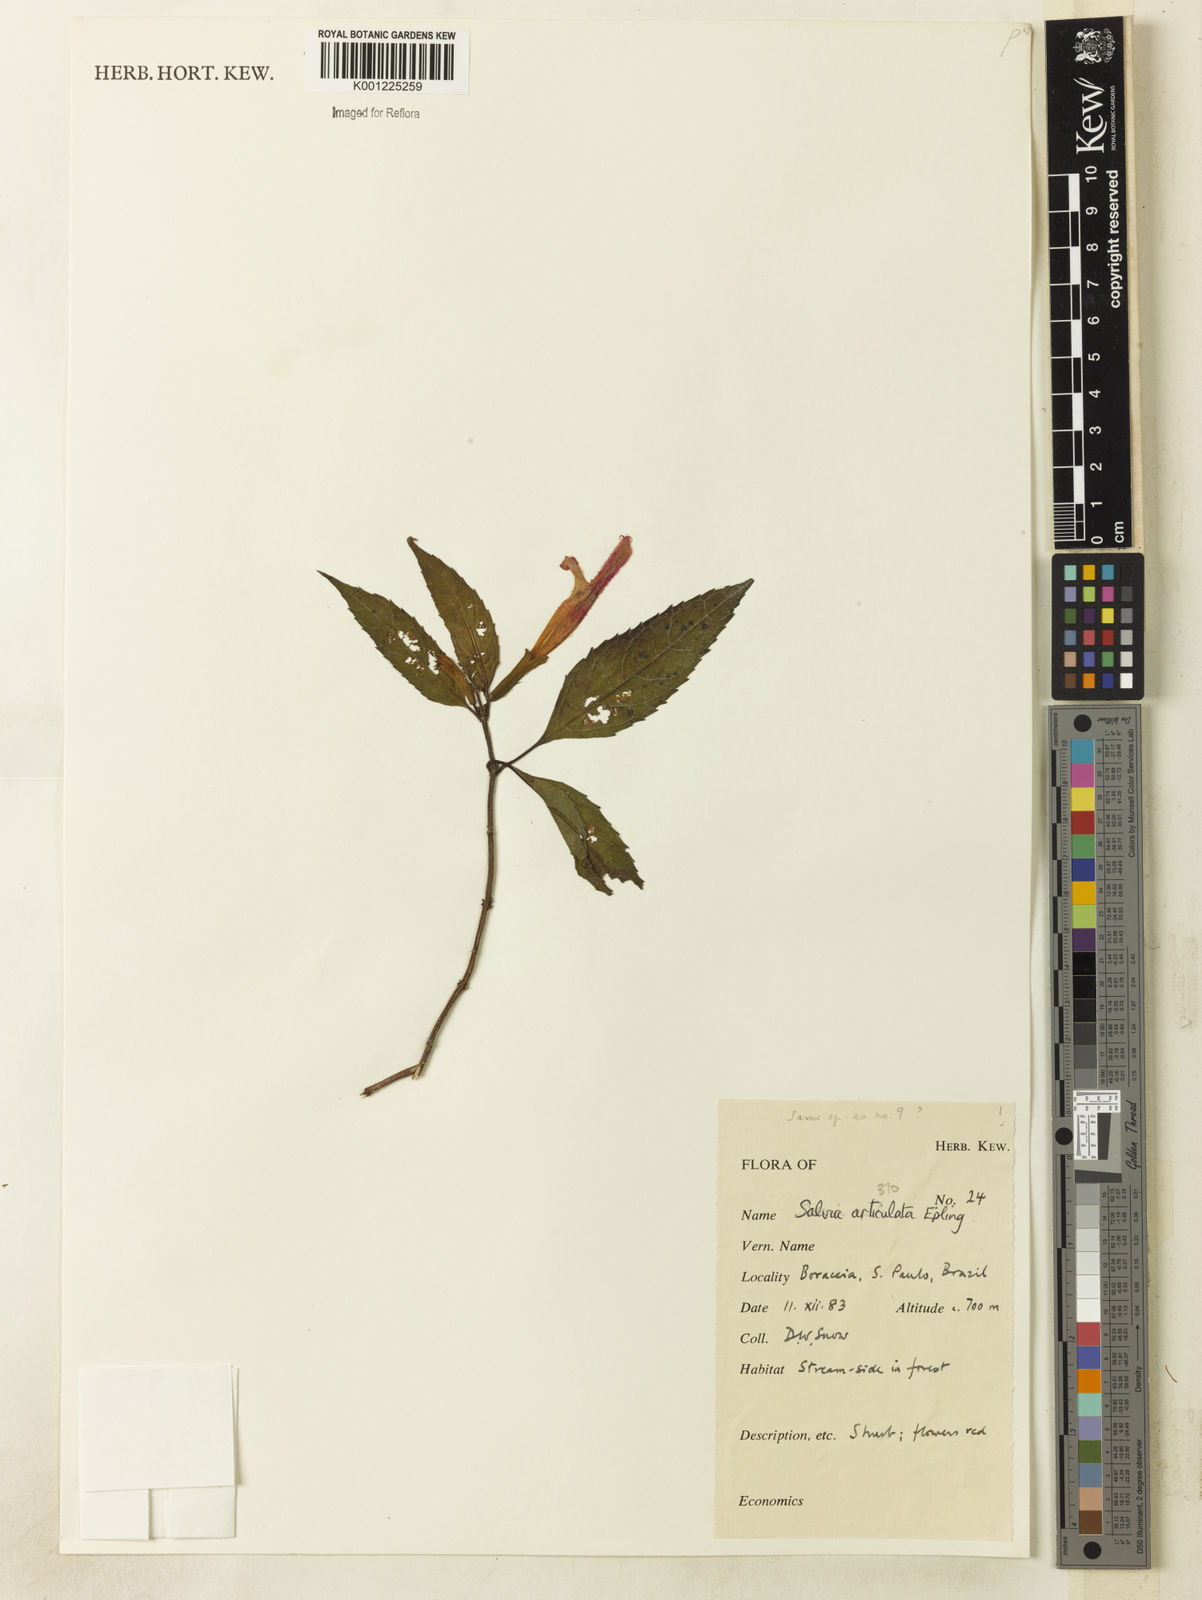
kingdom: Plantae
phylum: Tracheophyta
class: Magnoliopsida
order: Lamiales
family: Lamiaceae
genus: Salvia
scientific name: Salvia articulata
